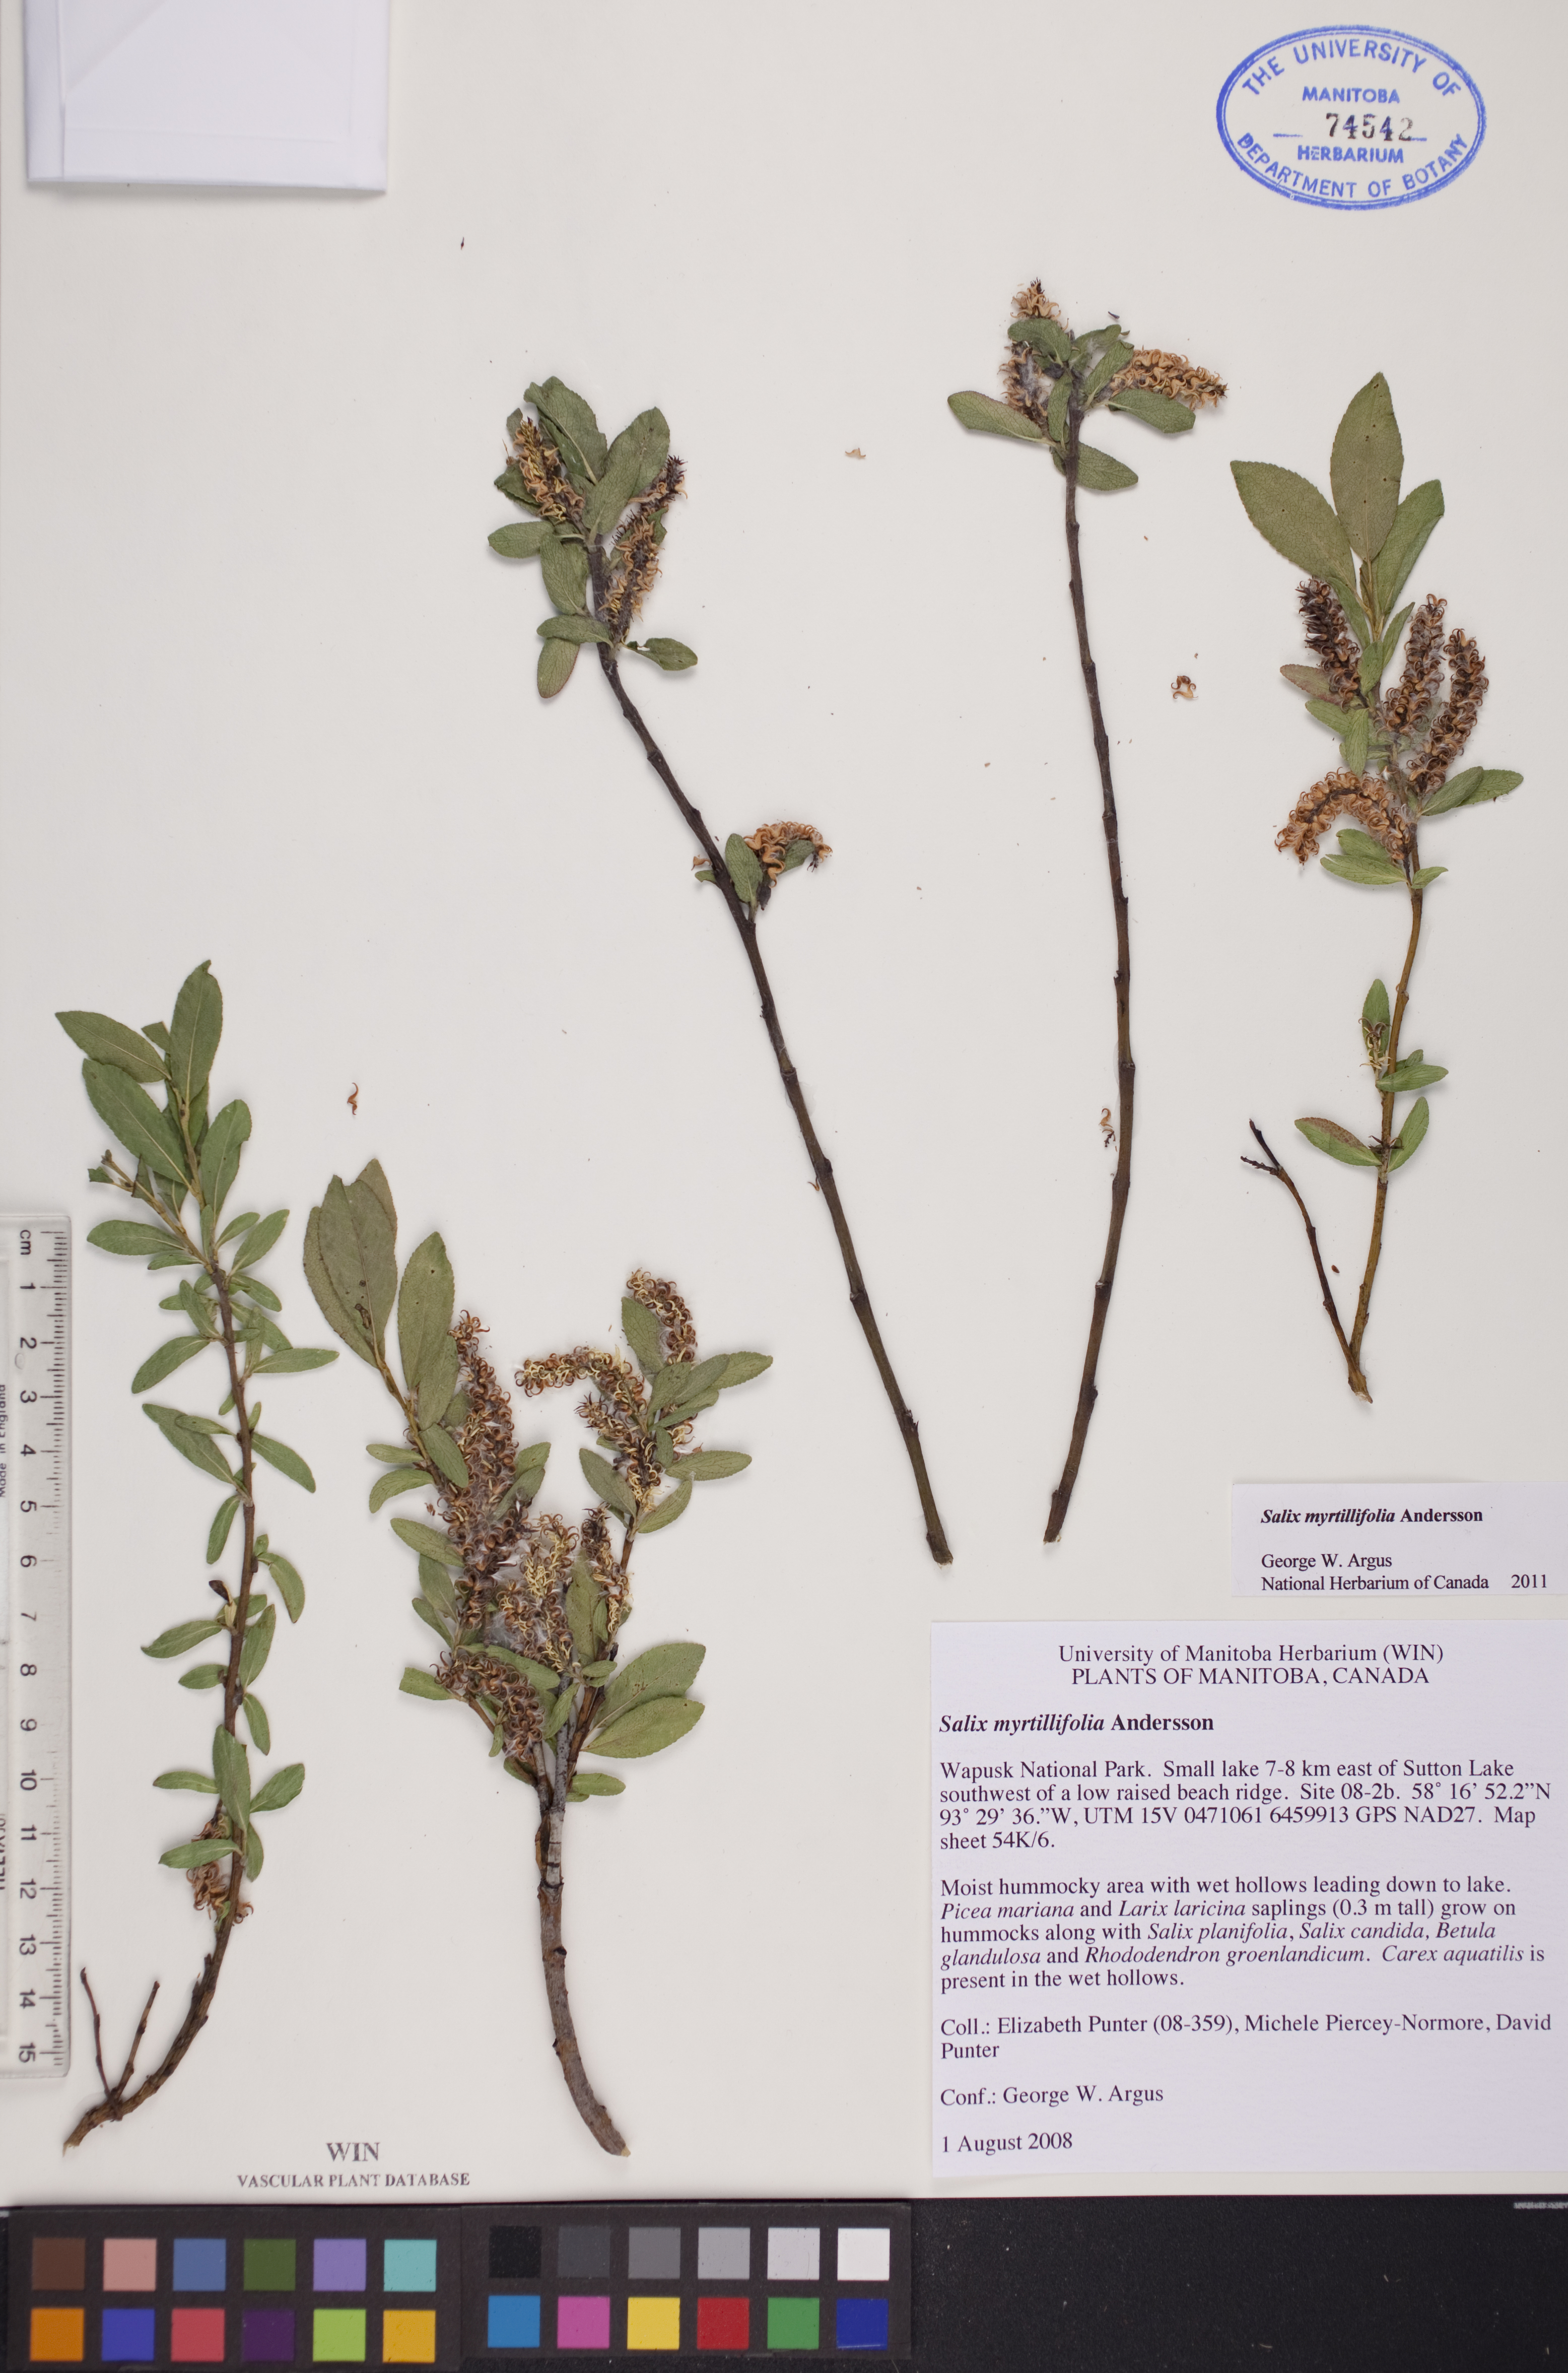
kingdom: Plantae
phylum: Tracheophyta
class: Magnoliopsida
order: Malpighiales
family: Salicaceae
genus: Salix
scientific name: Salix myrtillifolia
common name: Bilberry willow
